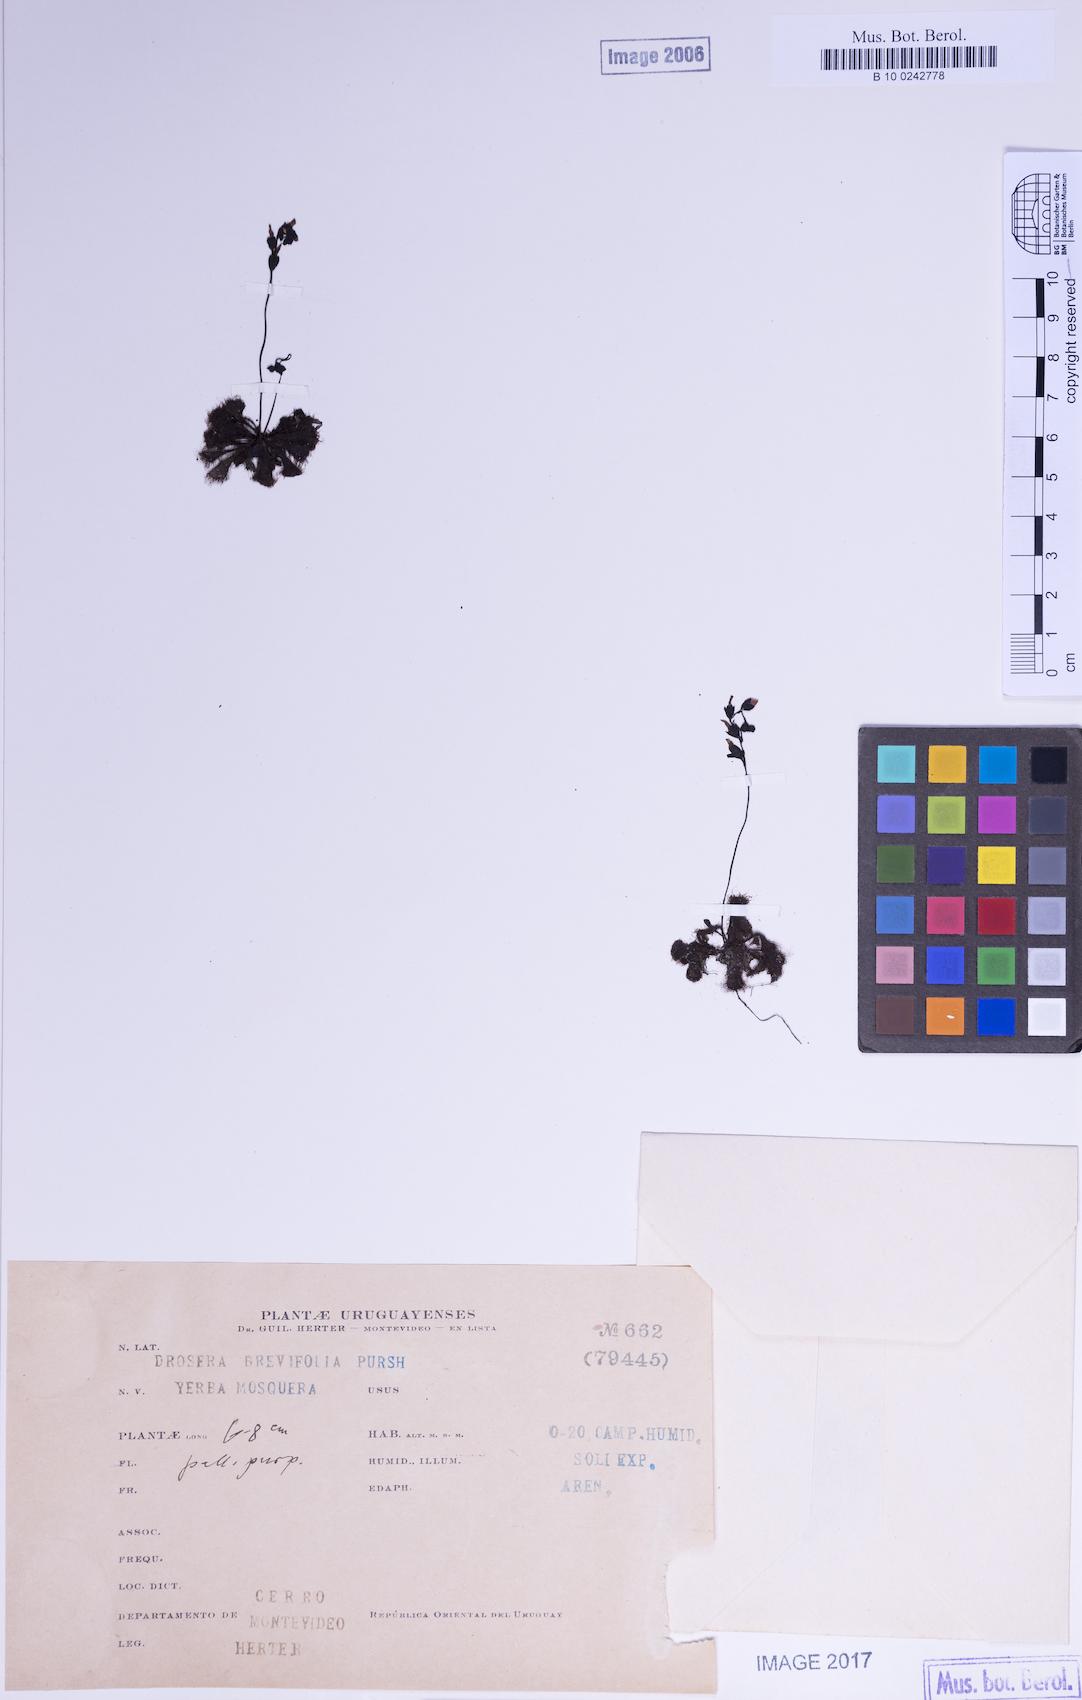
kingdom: Plantae
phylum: Tracheophyta
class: Magnoliopsida
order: Caryophyllales
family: Droseraceae
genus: Drosera
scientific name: Drosera brevifolia
